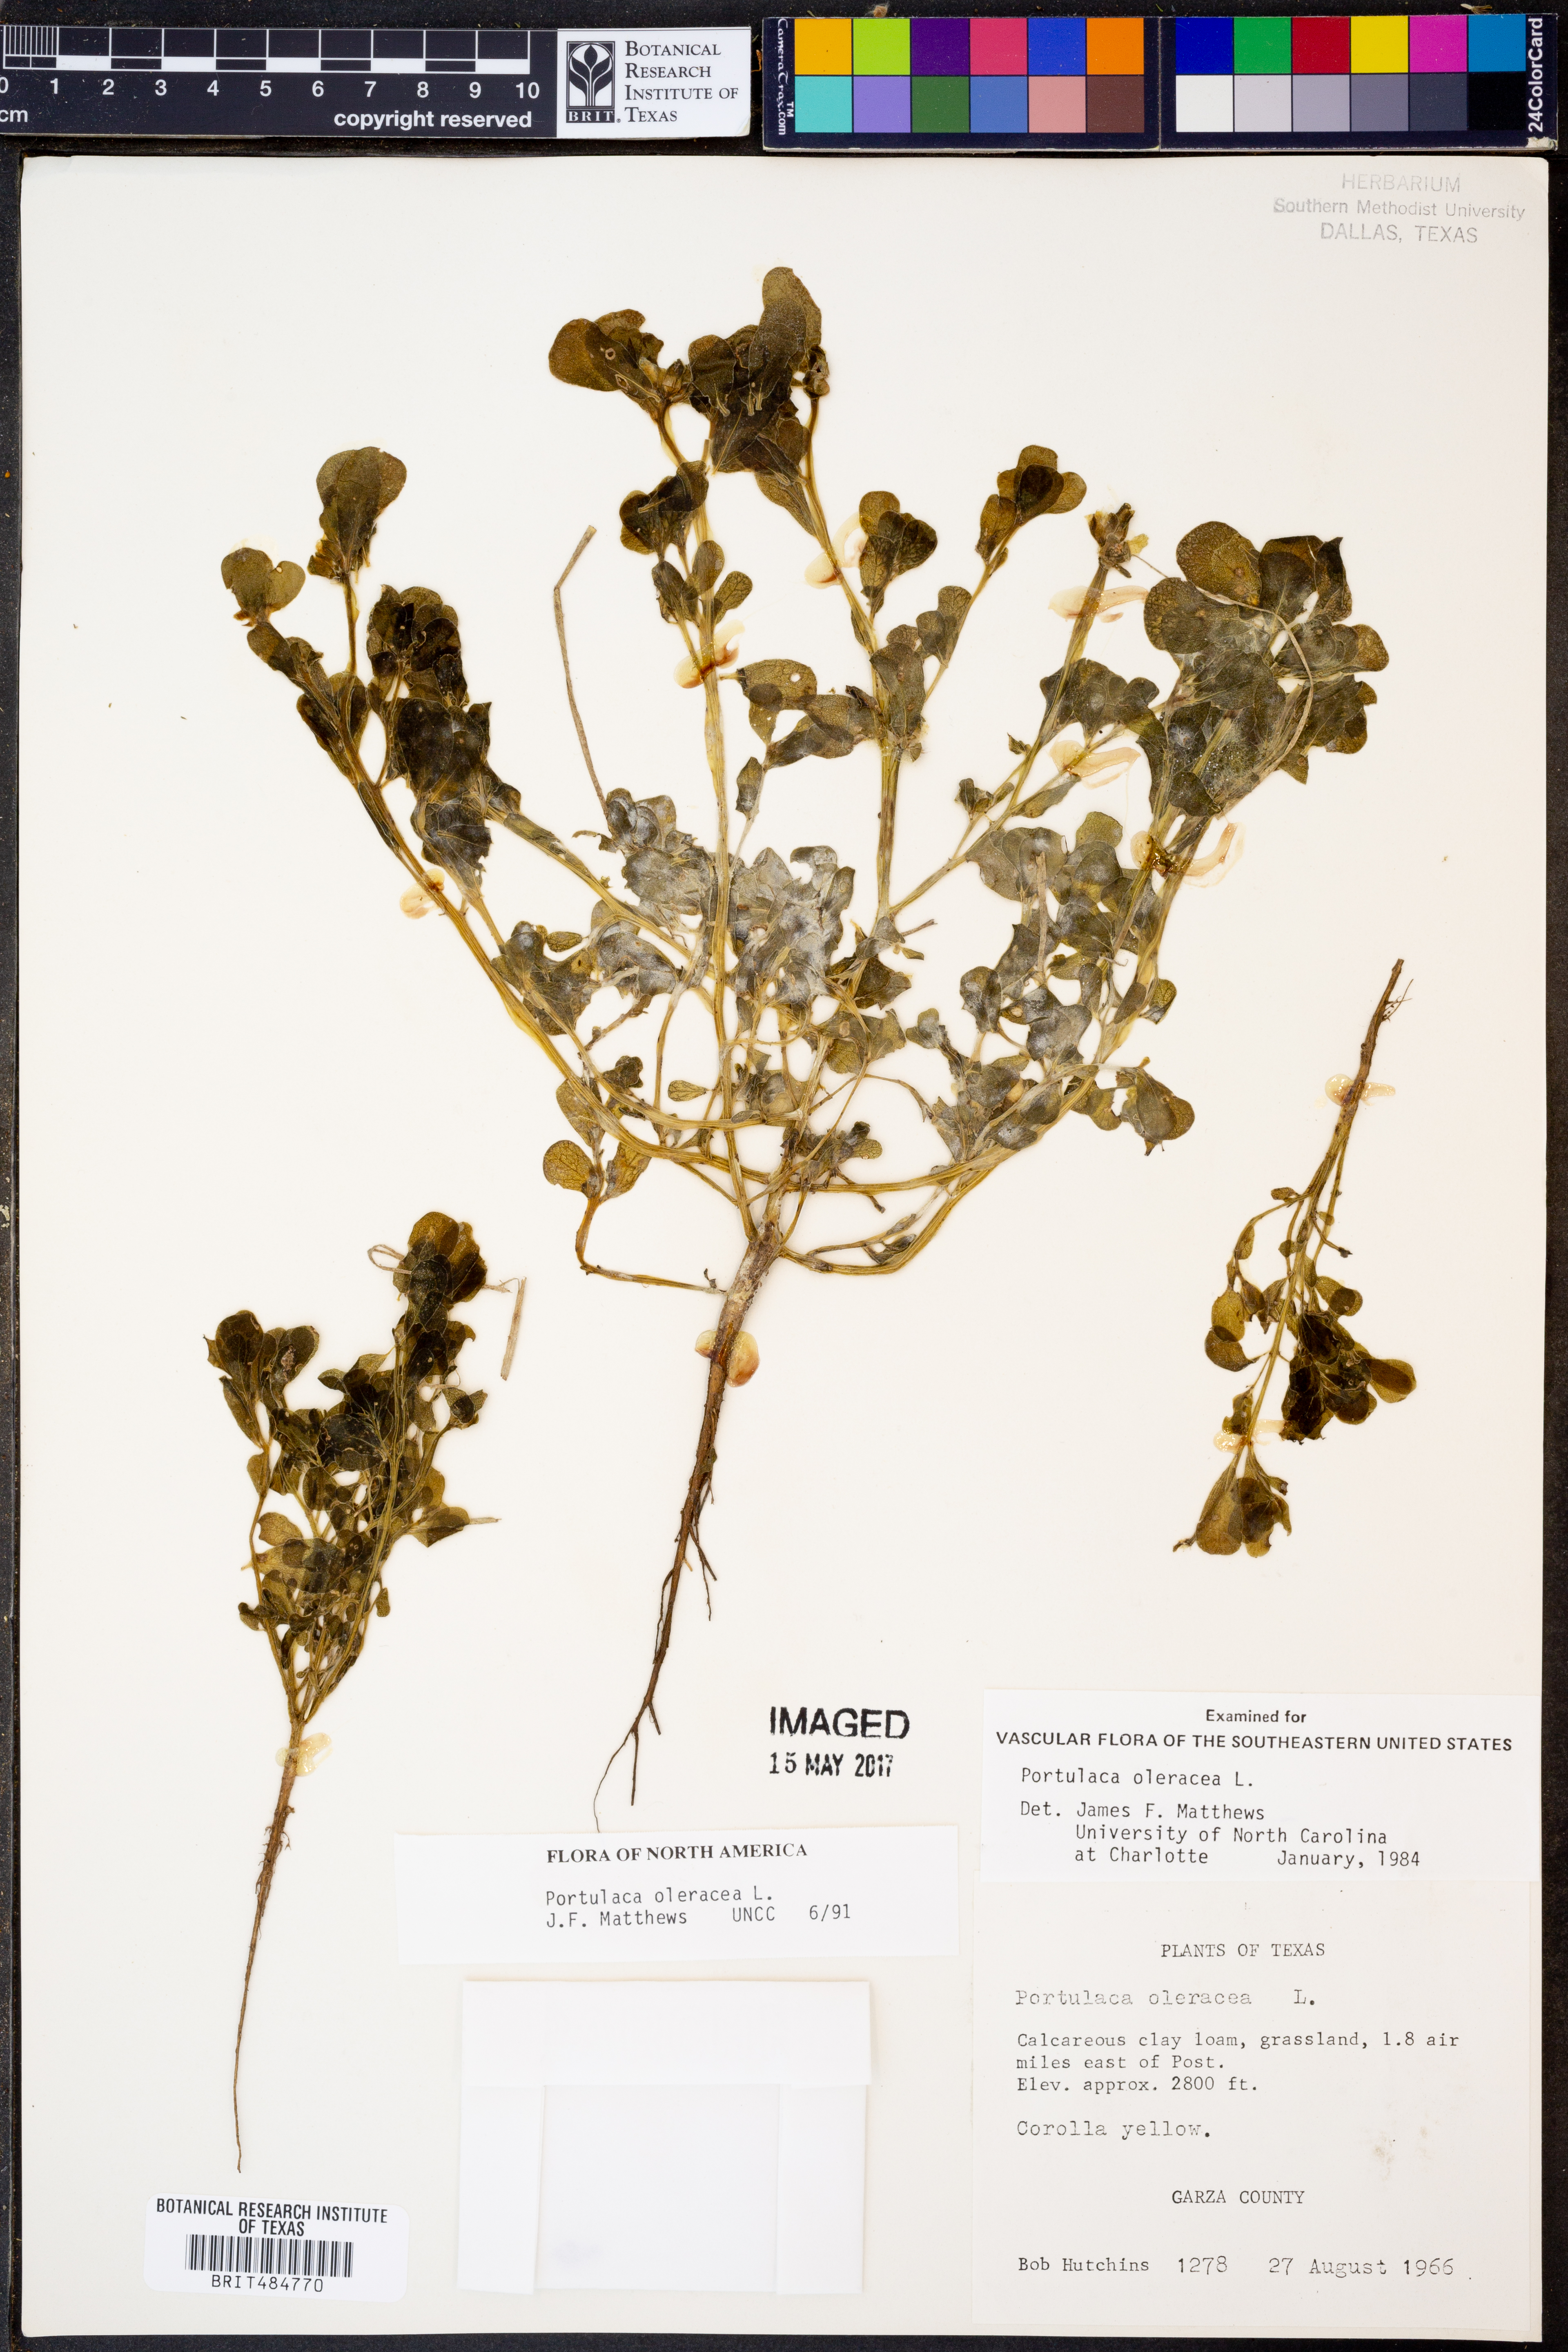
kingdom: Plantae
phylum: Tracheophyta
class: Magnoliopsida
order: Caryophyllales
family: Portulacaceae
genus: Portulaca
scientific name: Portulaca oleracea
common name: Common purslane
